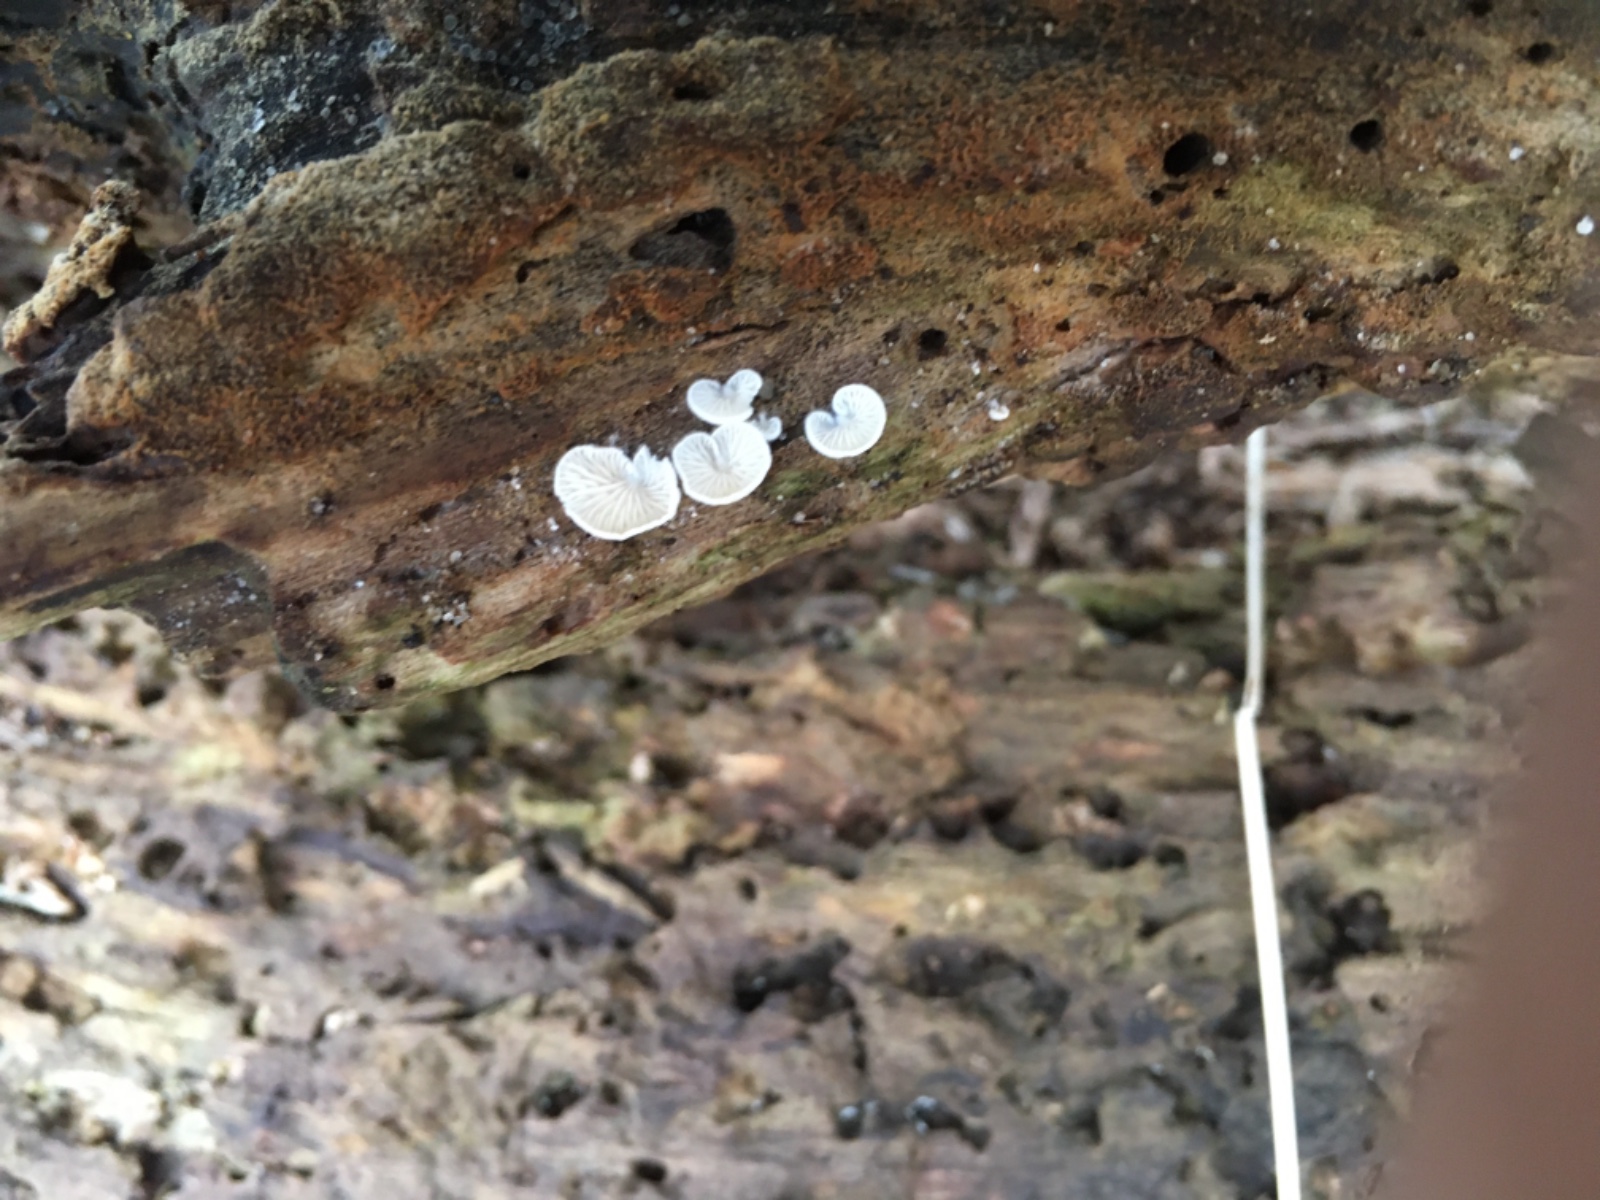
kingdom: Fungi
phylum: Basidiomycota
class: Agaricomycetes
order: Agaricales
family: Entolomataceae
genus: Clitopilus
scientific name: Clitopilus hobsonii
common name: Miller's oysterling
